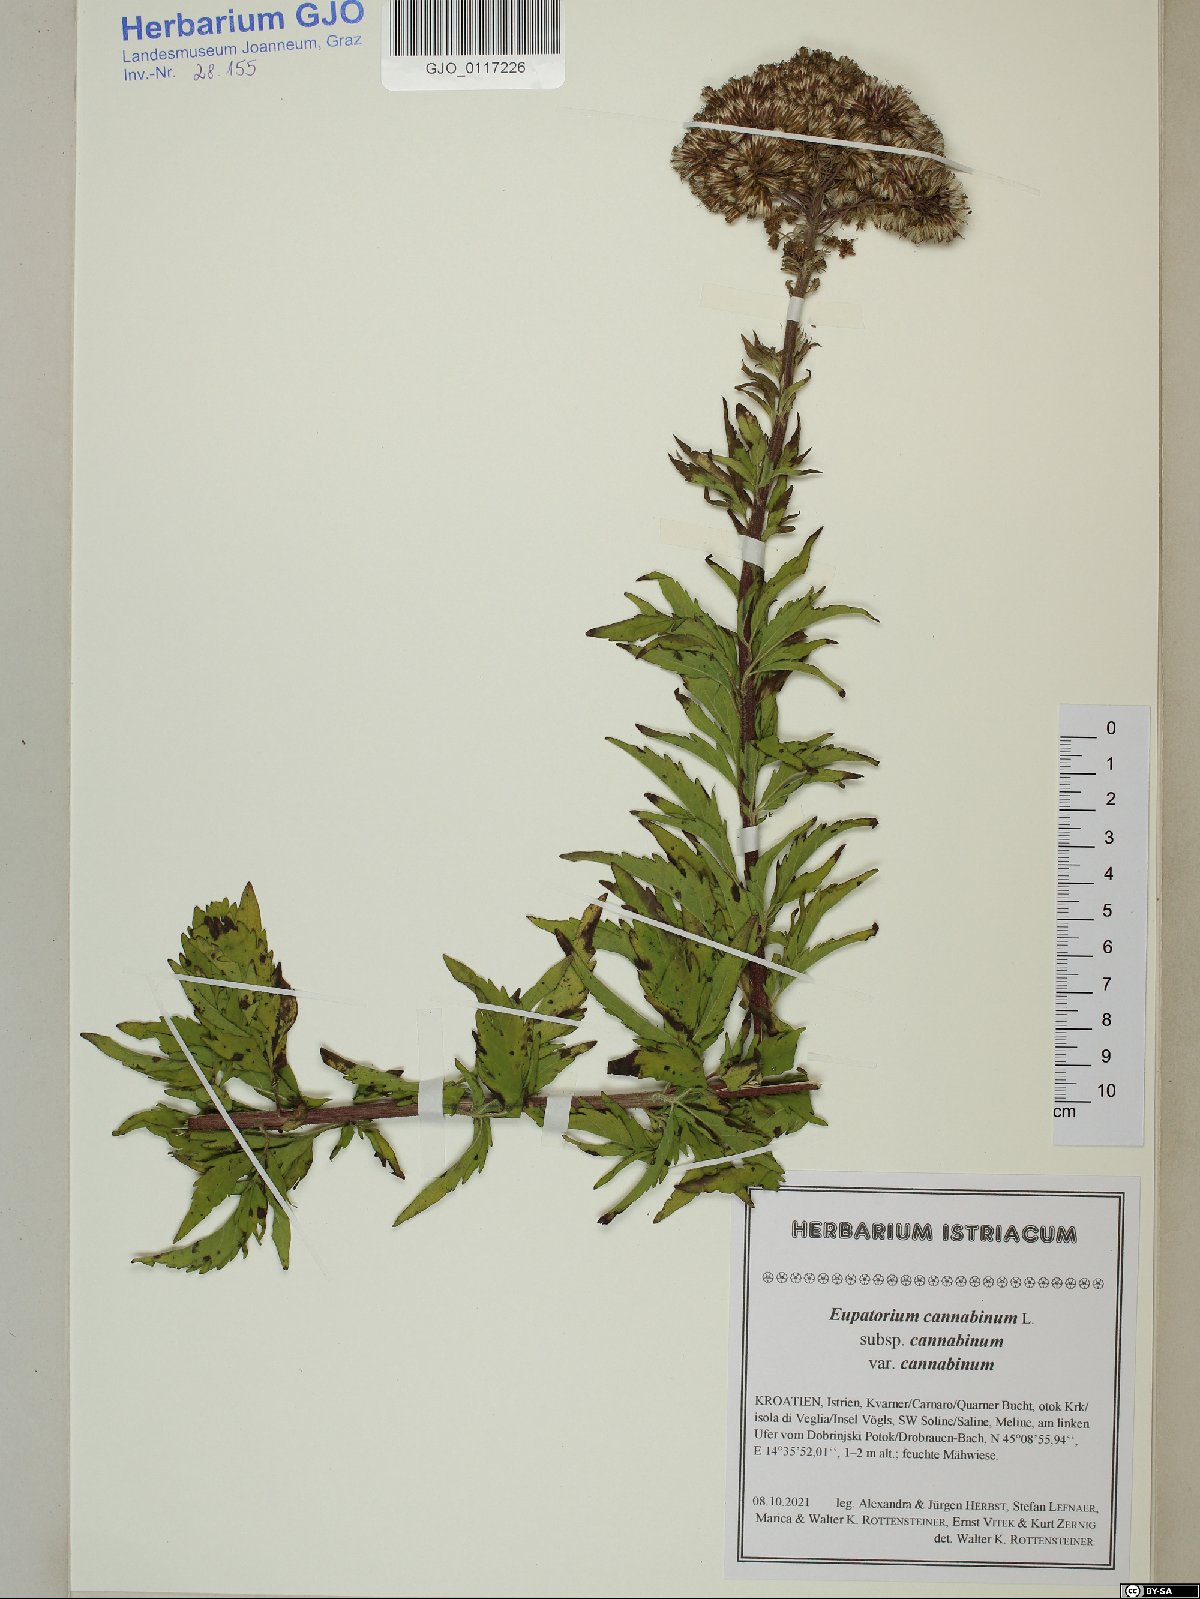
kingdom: Plantae
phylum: Tracheophyta
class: Magnoliopsida
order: Asterales
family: Asteraceae
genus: Eupatorium
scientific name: Eupatorium cannabinum
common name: Hemp-agrimony
